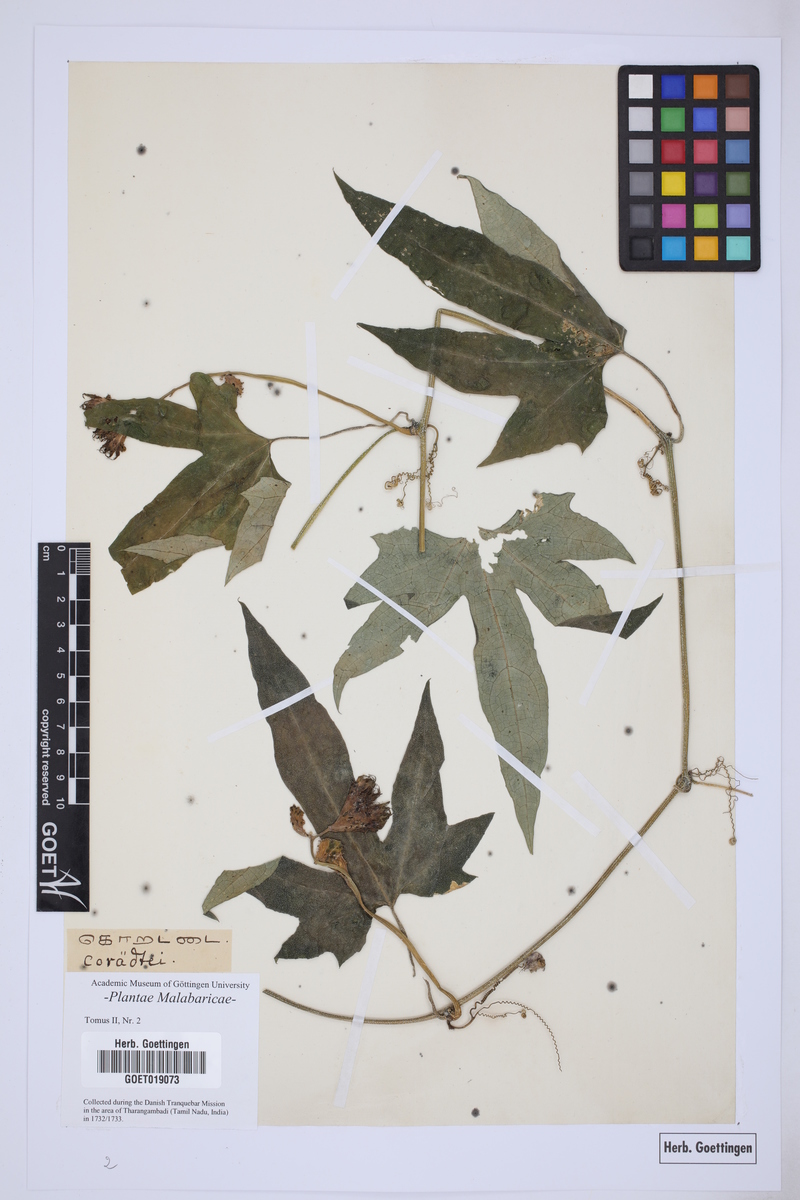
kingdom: Plantae
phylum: Tracheophyta
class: Magnoliopsida
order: Malpighiales
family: Passifloraceae
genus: Passiflora
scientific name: Passiflora
